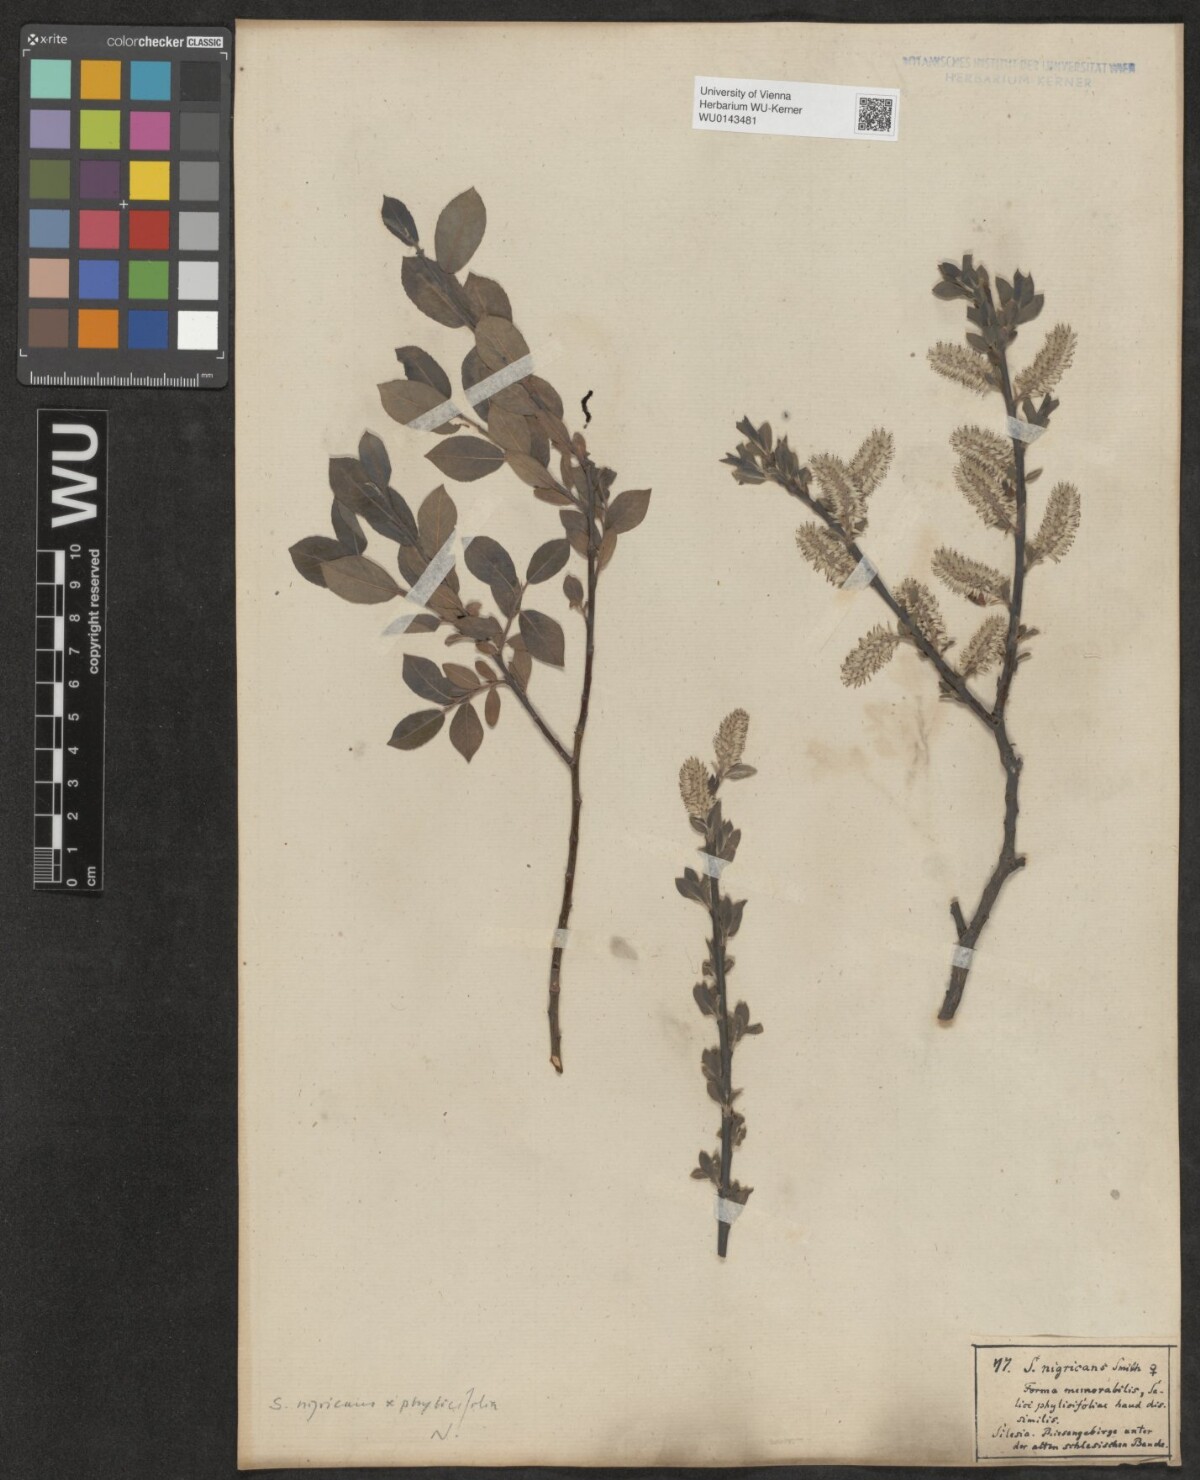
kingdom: Plantae
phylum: Tracheophyta
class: Magnoliopsida
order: Malpighiales
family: Salicaceae
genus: Salix
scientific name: Salix tetrapla
